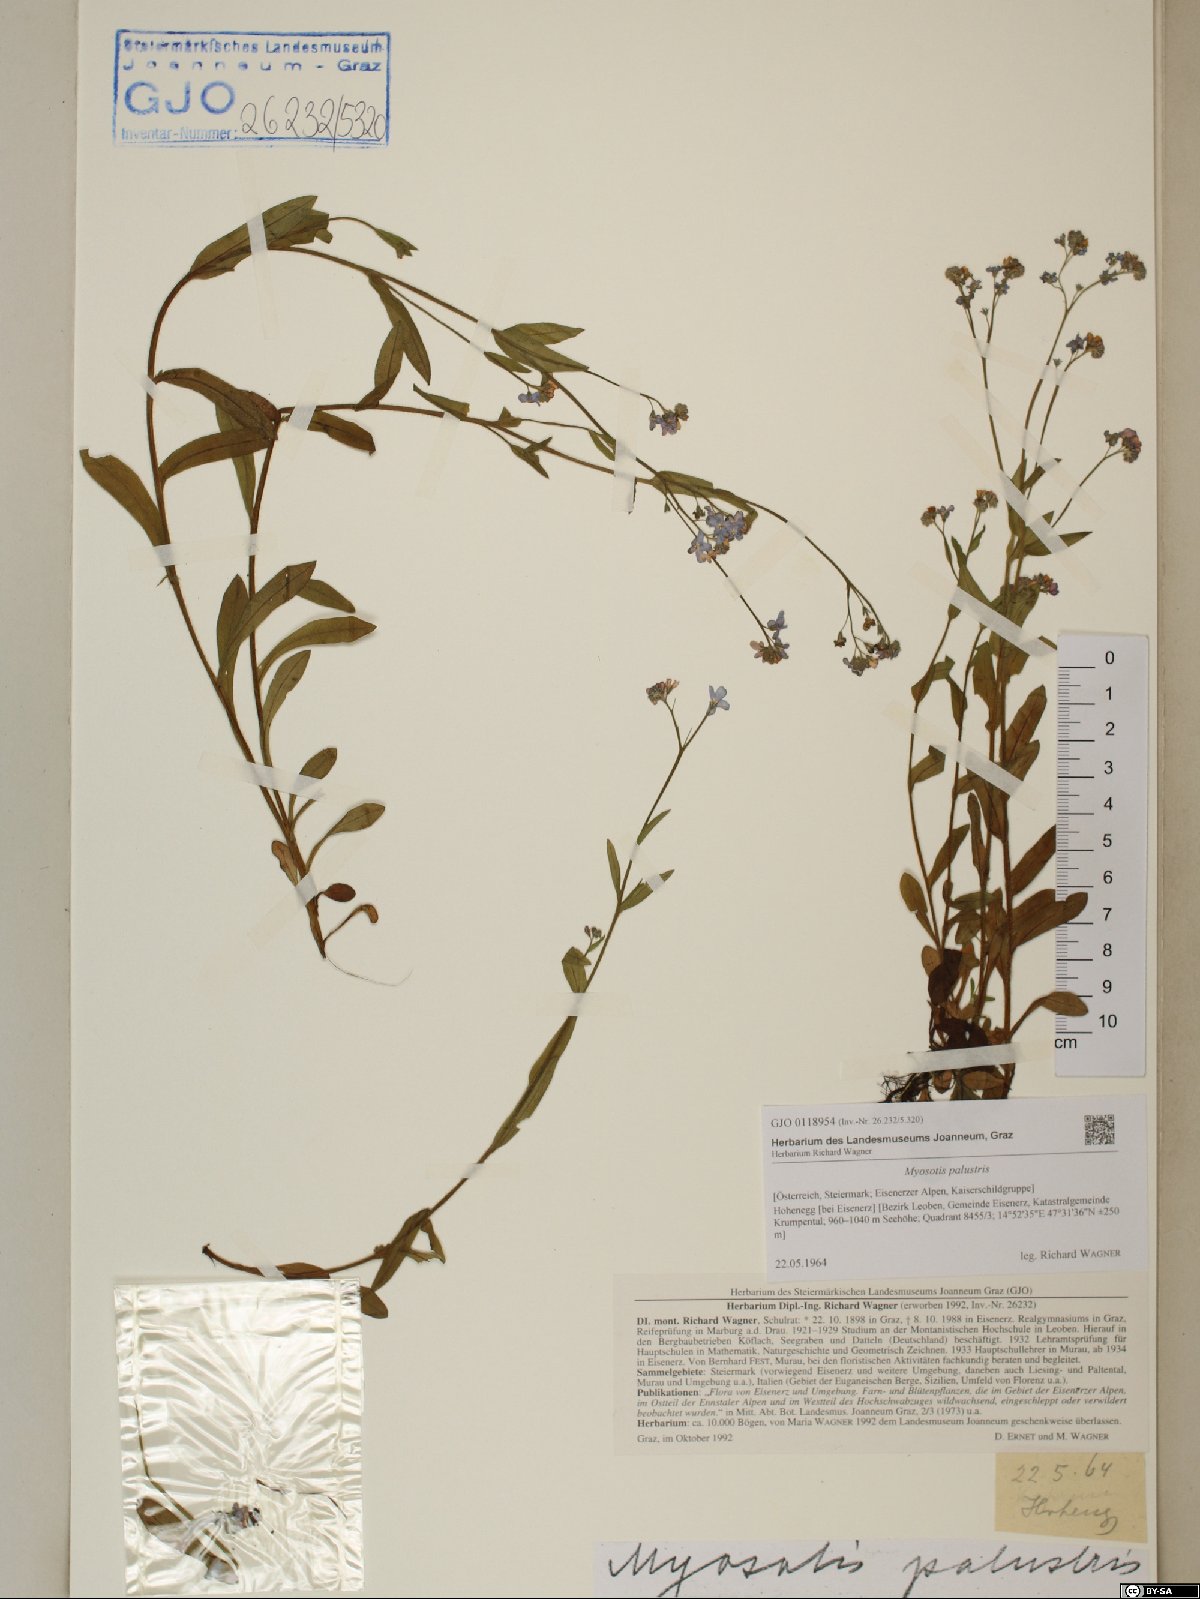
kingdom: Plantae
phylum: Tracheophyta
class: Magnoliopsida
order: Boraginales
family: Boraginaceae
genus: Myosotis
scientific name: Myosotis scorpioides
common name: Water forget-me-not
